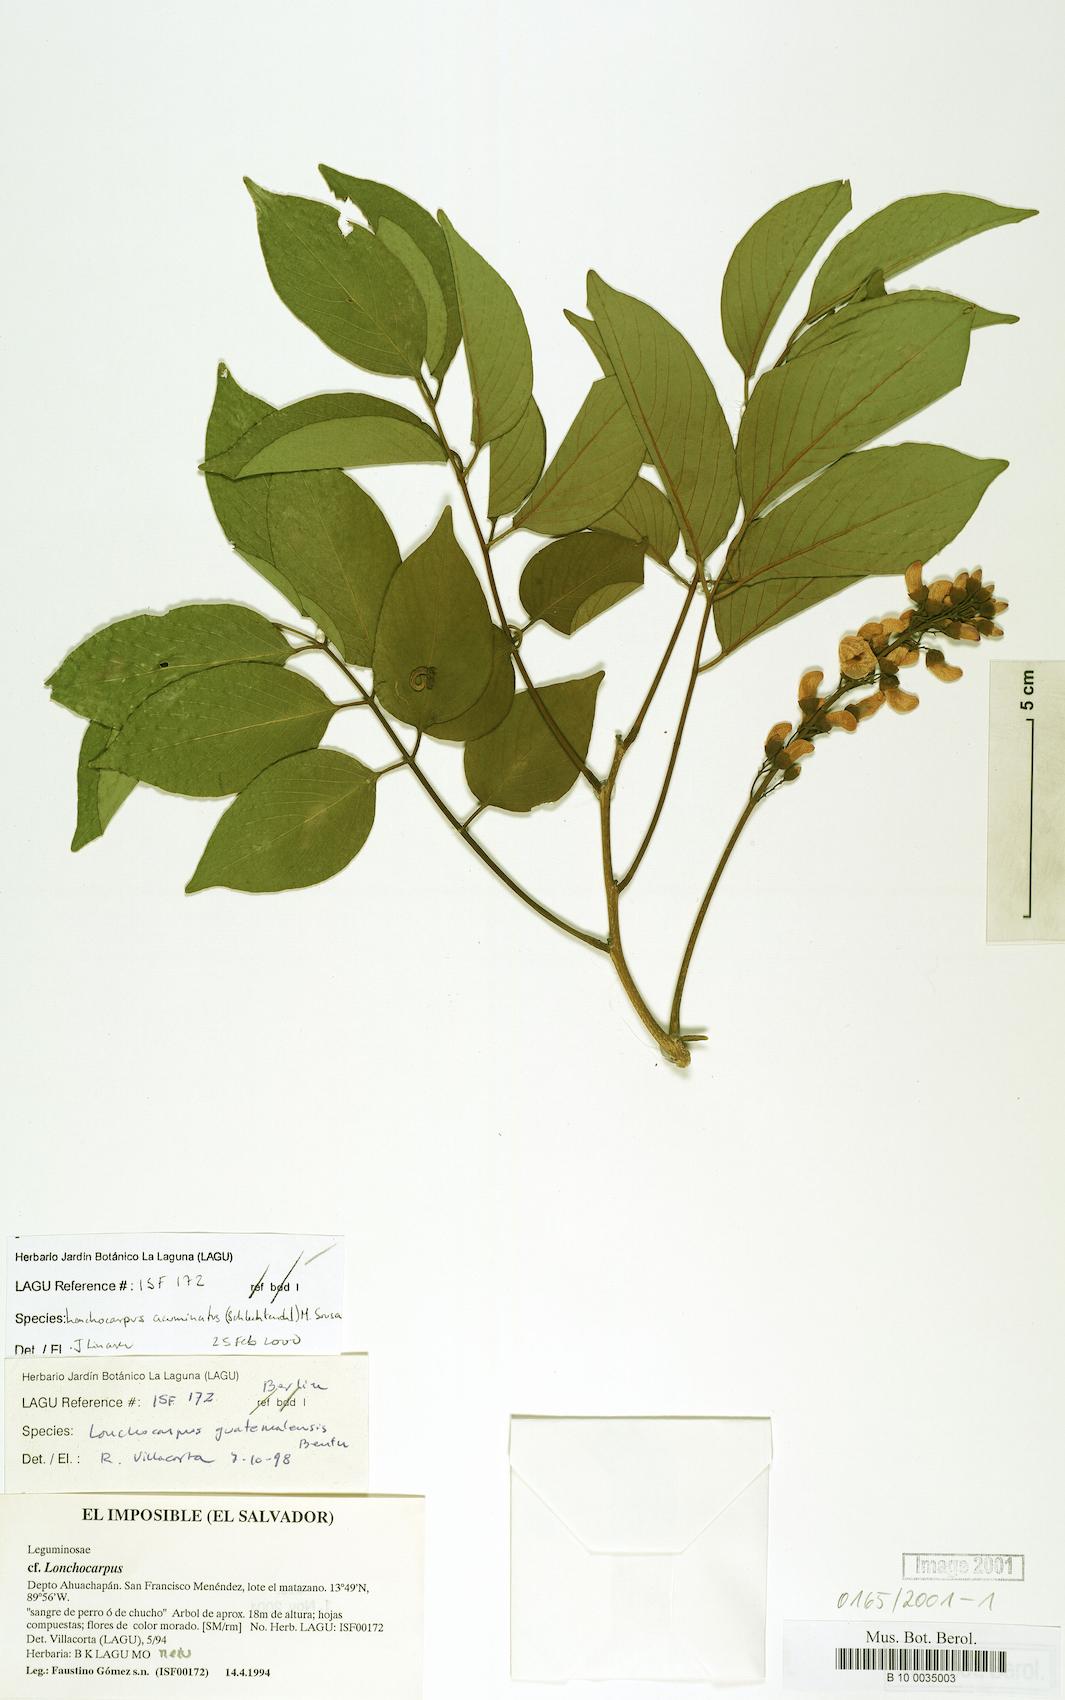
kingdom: Plantae
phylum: Tracheophyta
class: Magnoliopsida
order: Fabales
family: Fabaceae
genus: Lonchocarpus
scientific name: Lonchocarpus michelianus
